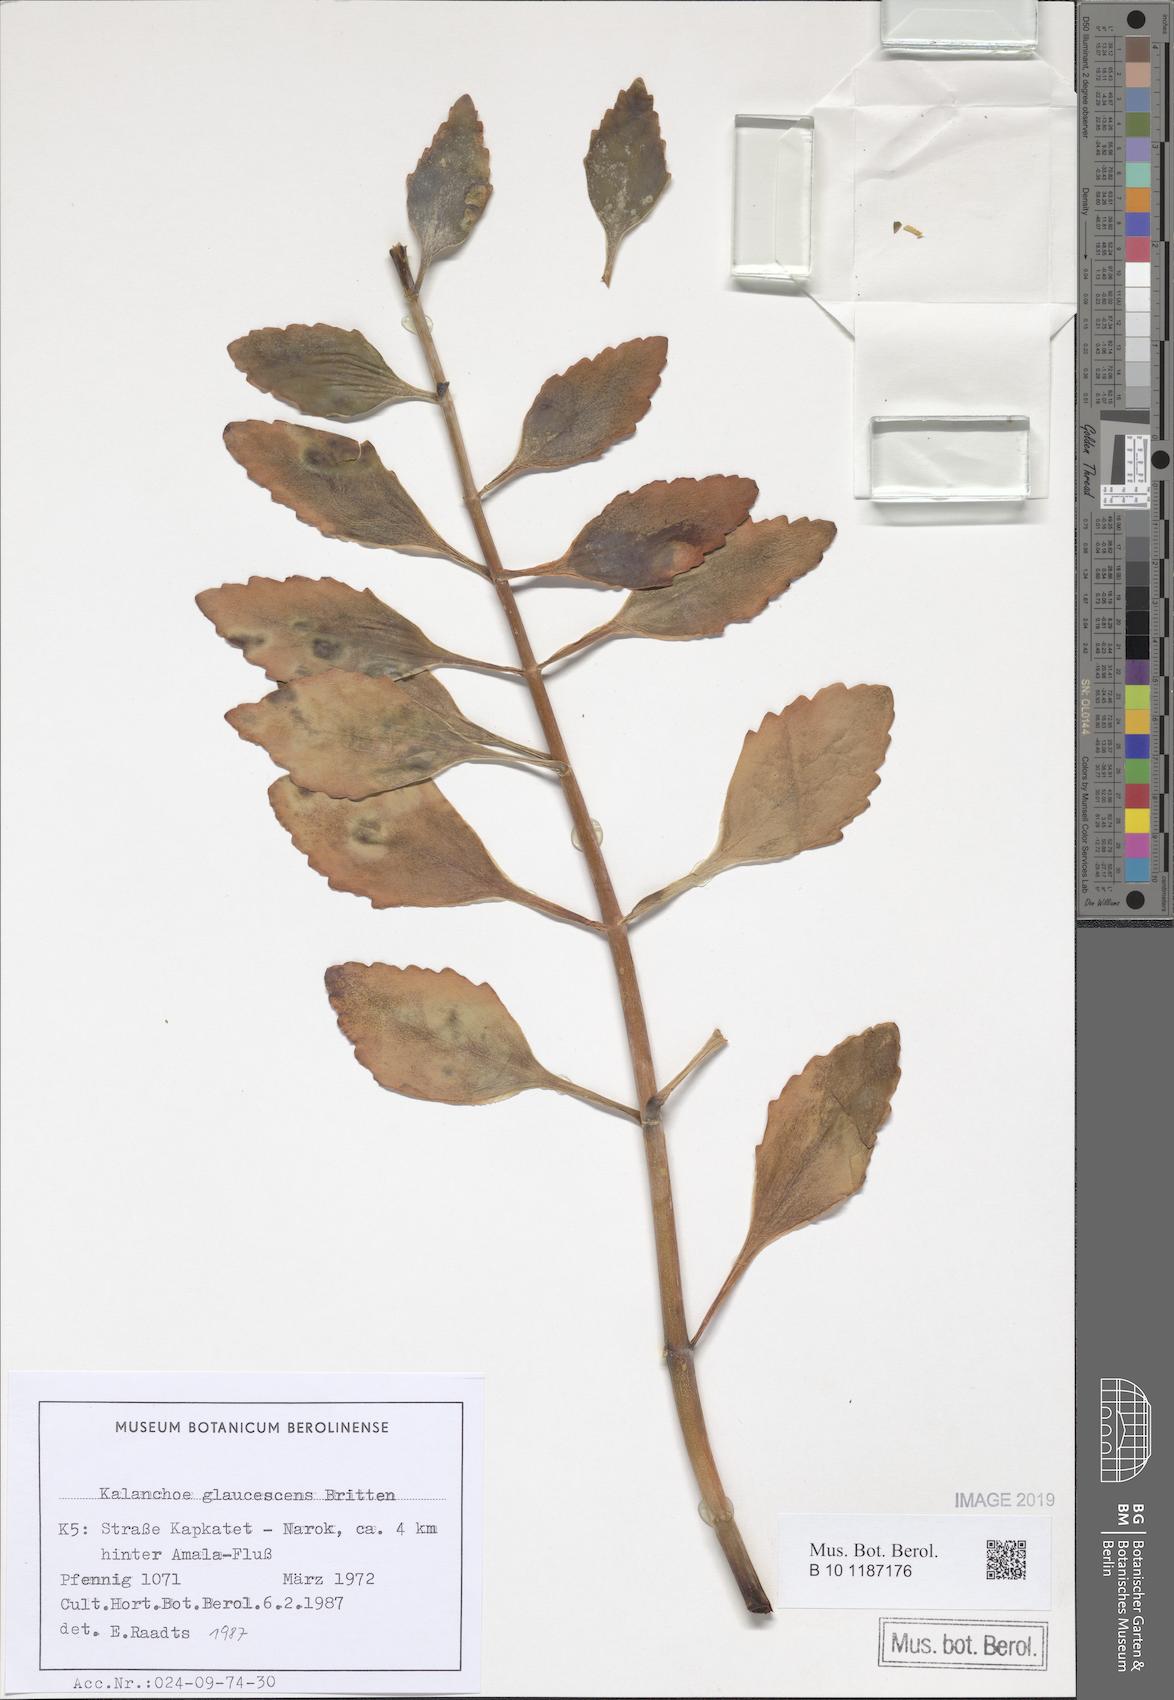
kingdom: Plantae
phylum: Tracheophyta
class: Magnoliopsida
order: Saxifragales
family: Crassulaceae
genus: Kalanchoe
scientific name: Kalanchoe glaucescens
